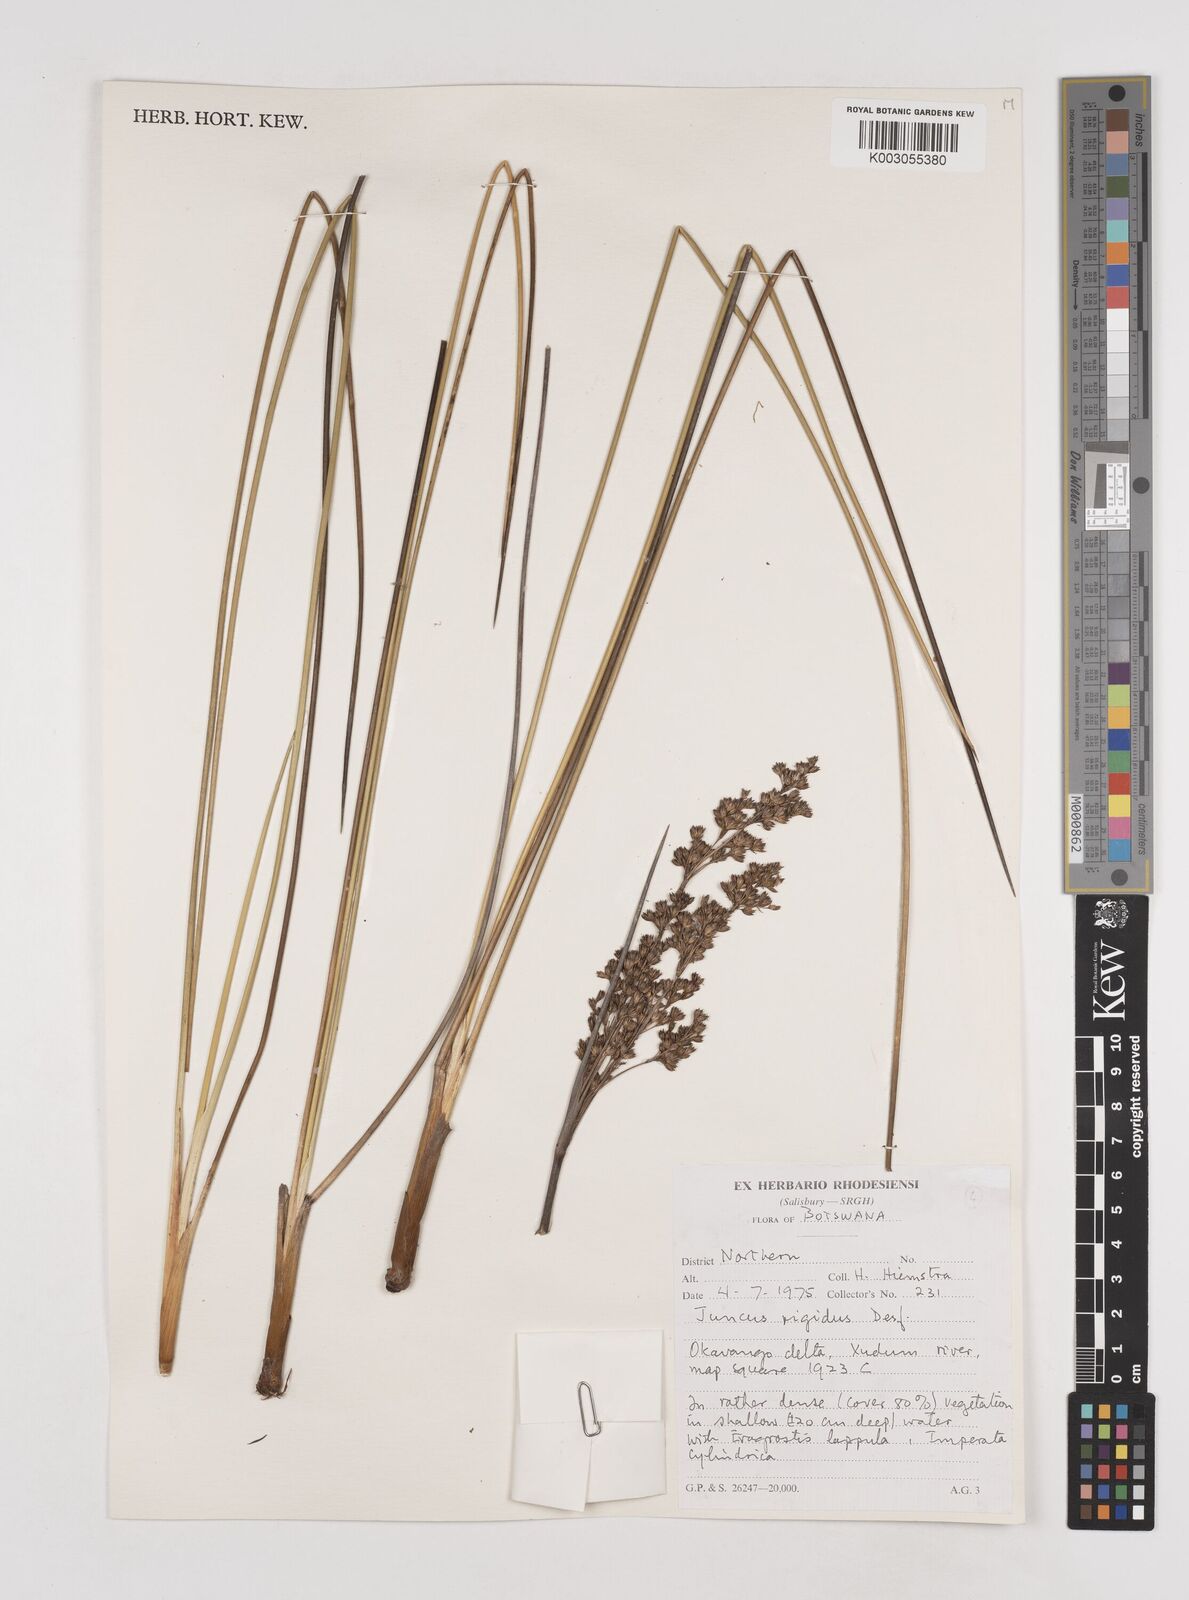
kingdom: Plantae
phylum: Tracheophyta
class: Liliopsida
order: Poales
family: Juncaceae
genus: Juncus
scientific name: Juncus rigidus
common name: Hard sea rush
